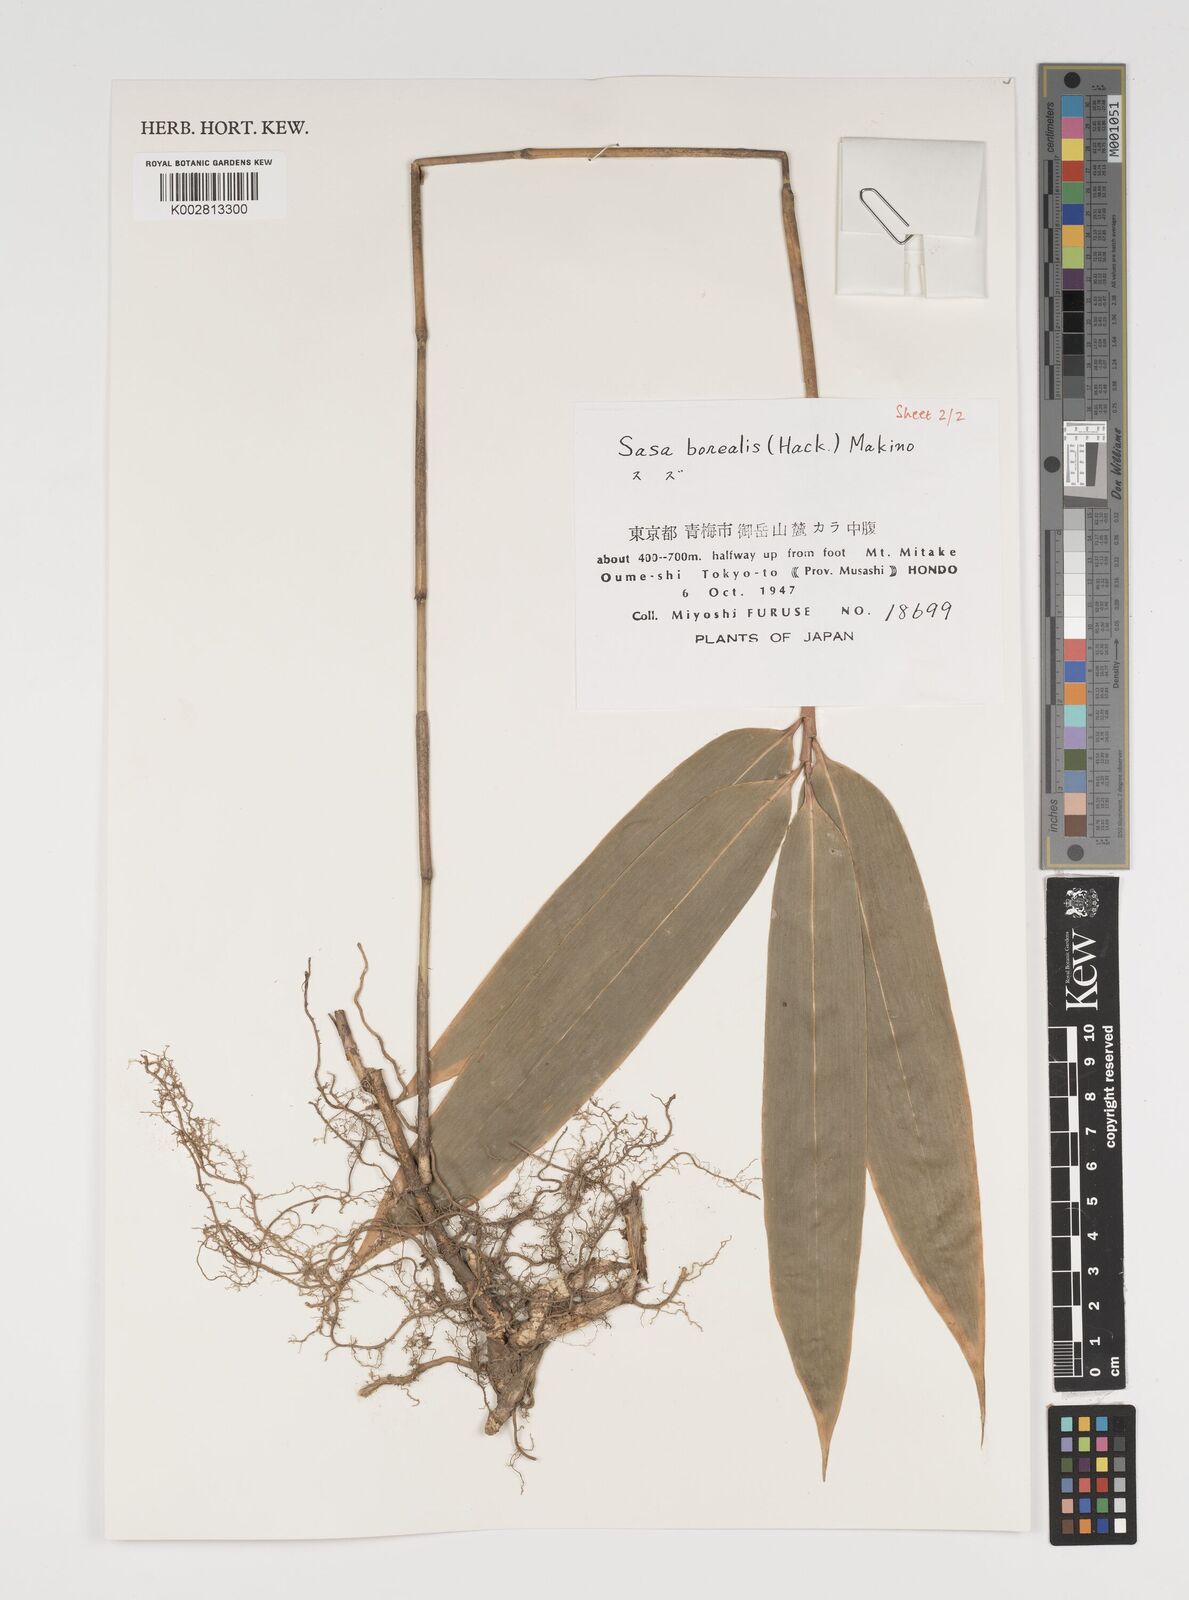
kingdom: Plantae
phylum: Tracheophyta
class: Liliopsida
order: Poales
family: Poaceae
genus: Sasamorpha
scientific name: Sasamorpha borealis
